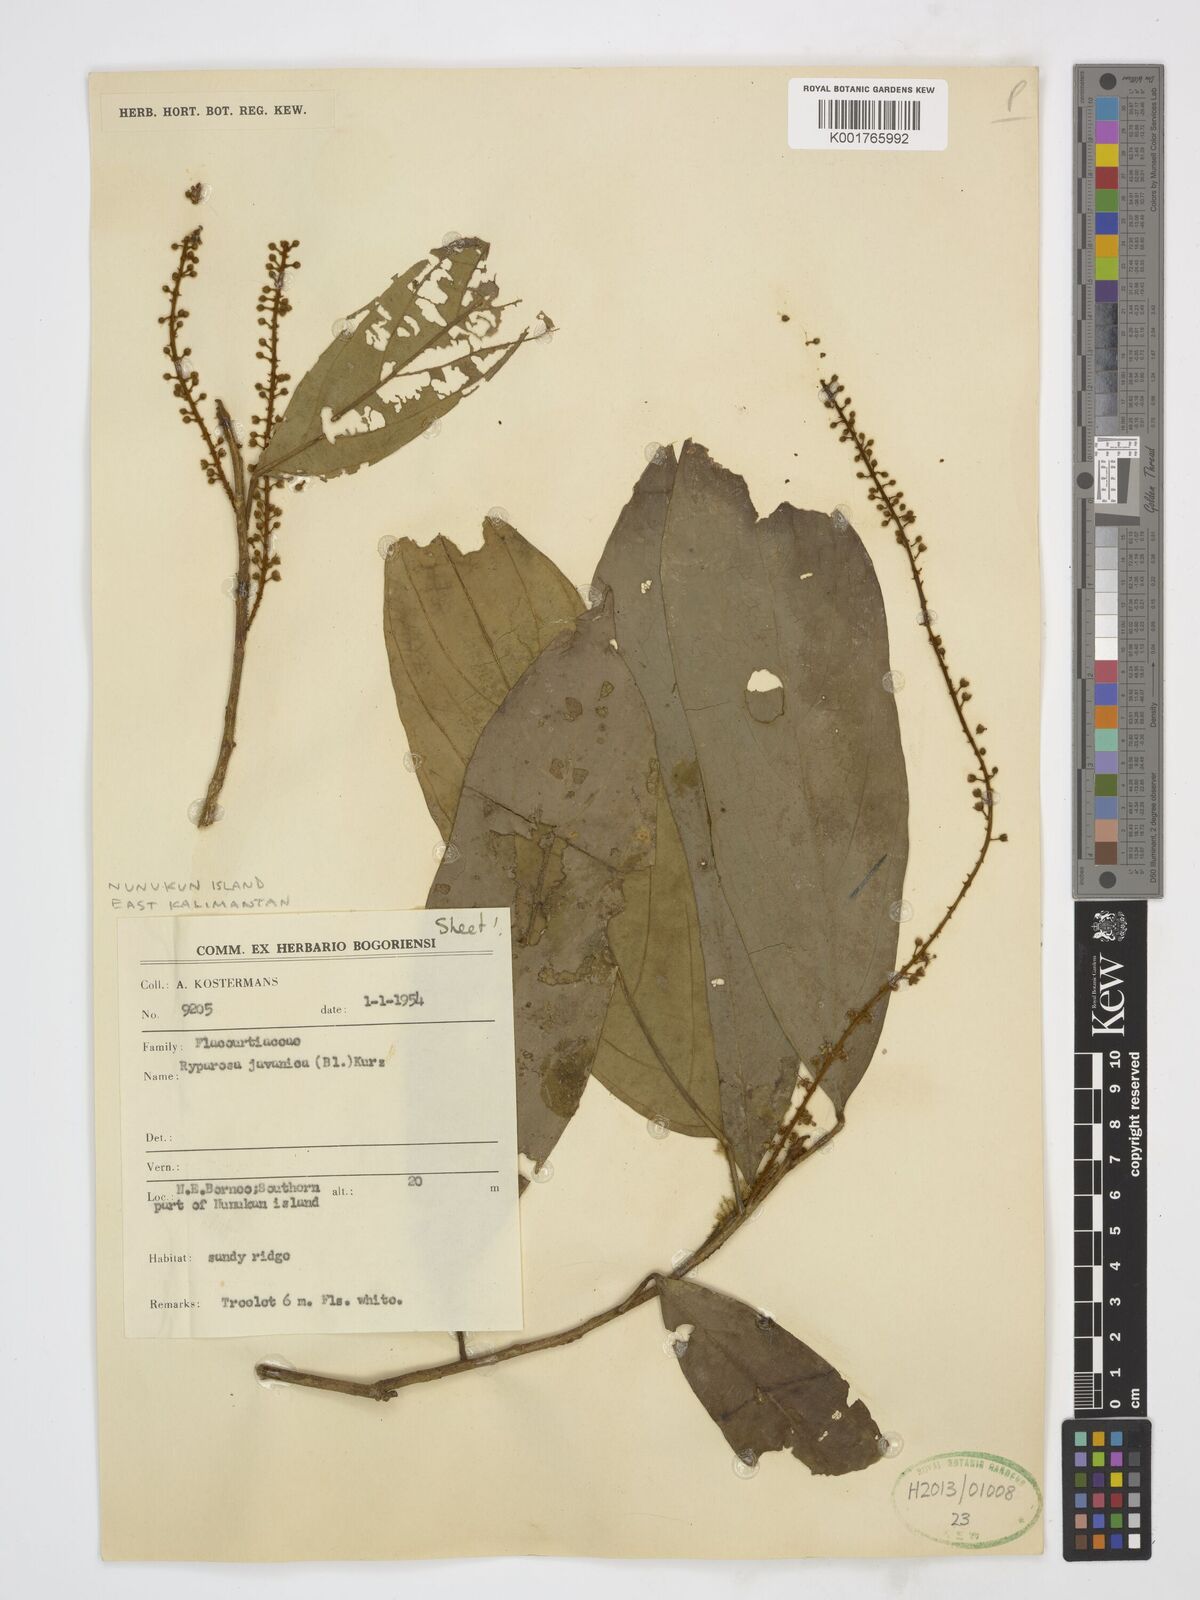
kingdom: Plantae
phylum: Tracheophyta
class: Magnoliopsida
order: Malpighiales
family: Achariaceae
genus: Ryparosa
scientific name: Ryparosa javanica
